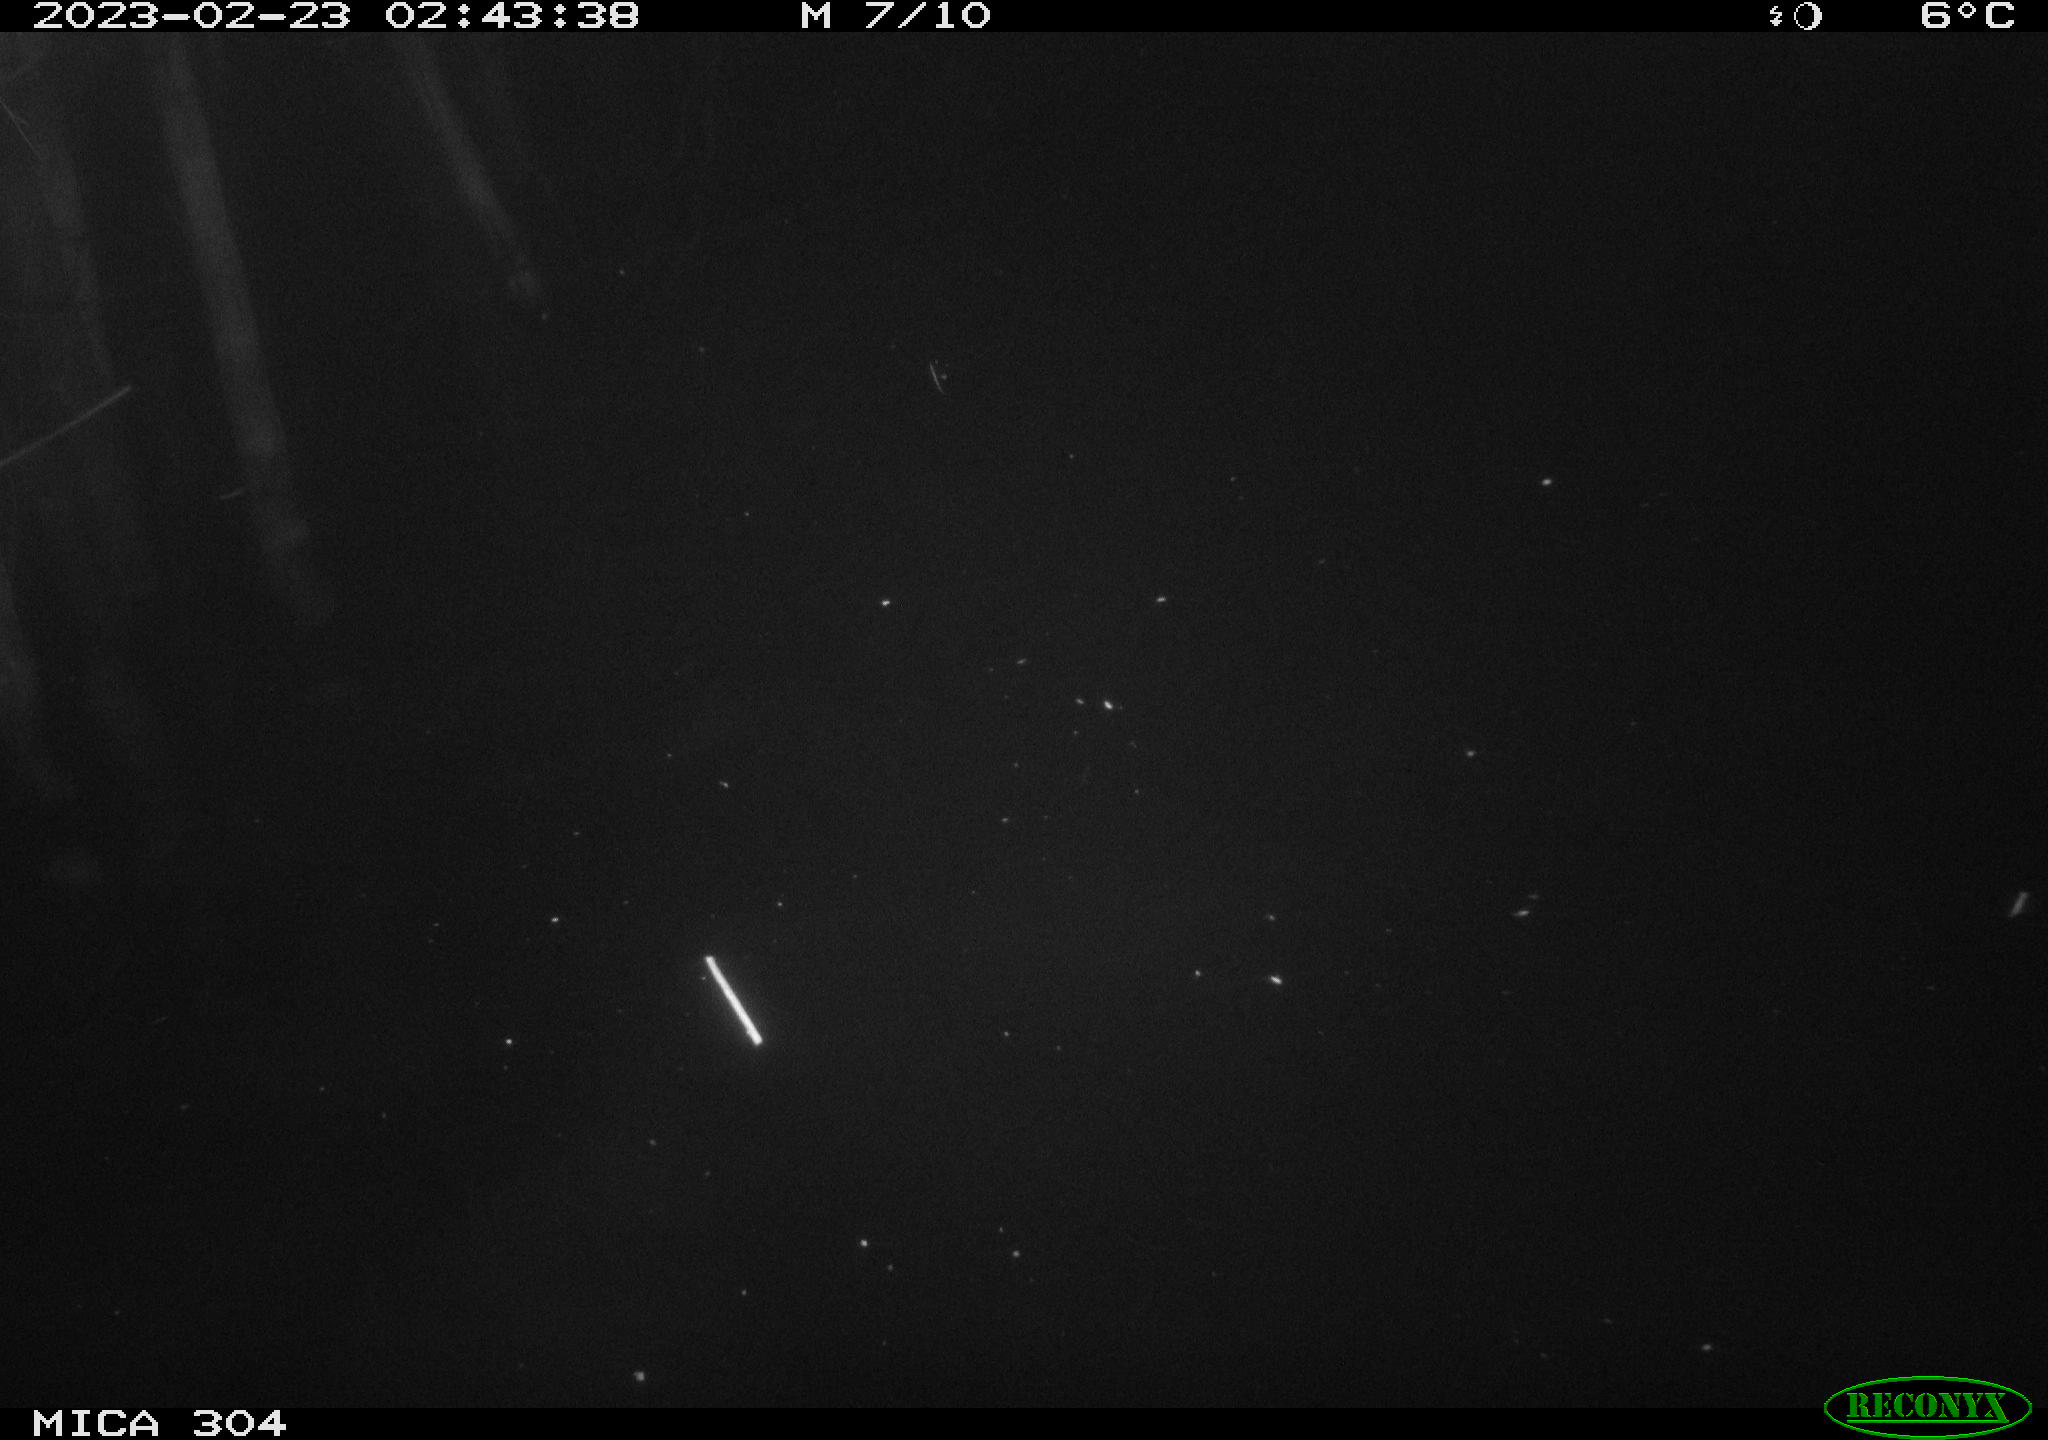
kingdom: Animalia
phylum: Chordata
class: Mammalia
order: Rodentia
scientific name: Rodentia
